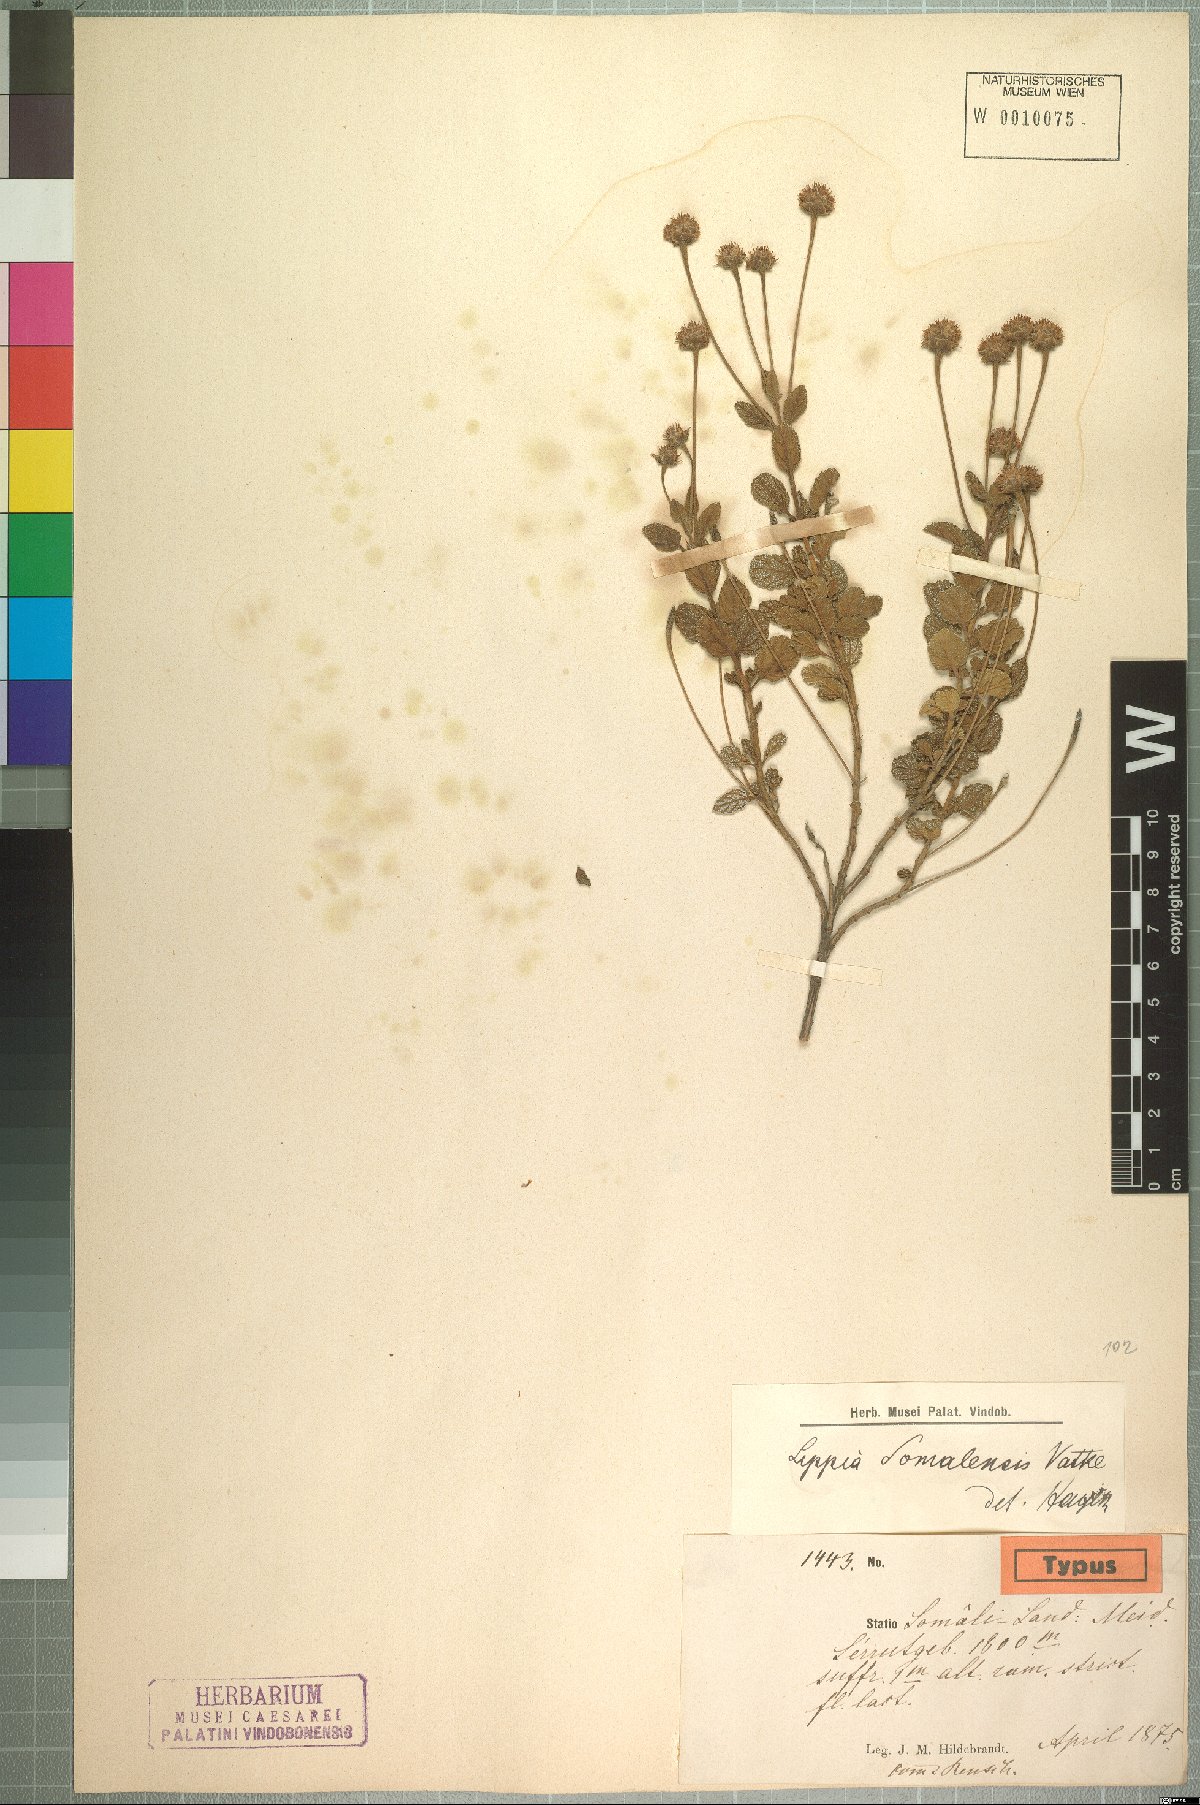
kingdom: Plantae
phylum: Tracheophyta
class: Magnoliopsida
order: Lamiales
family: Verbenaceae
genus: Lippia
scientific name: Lippia somalensis
